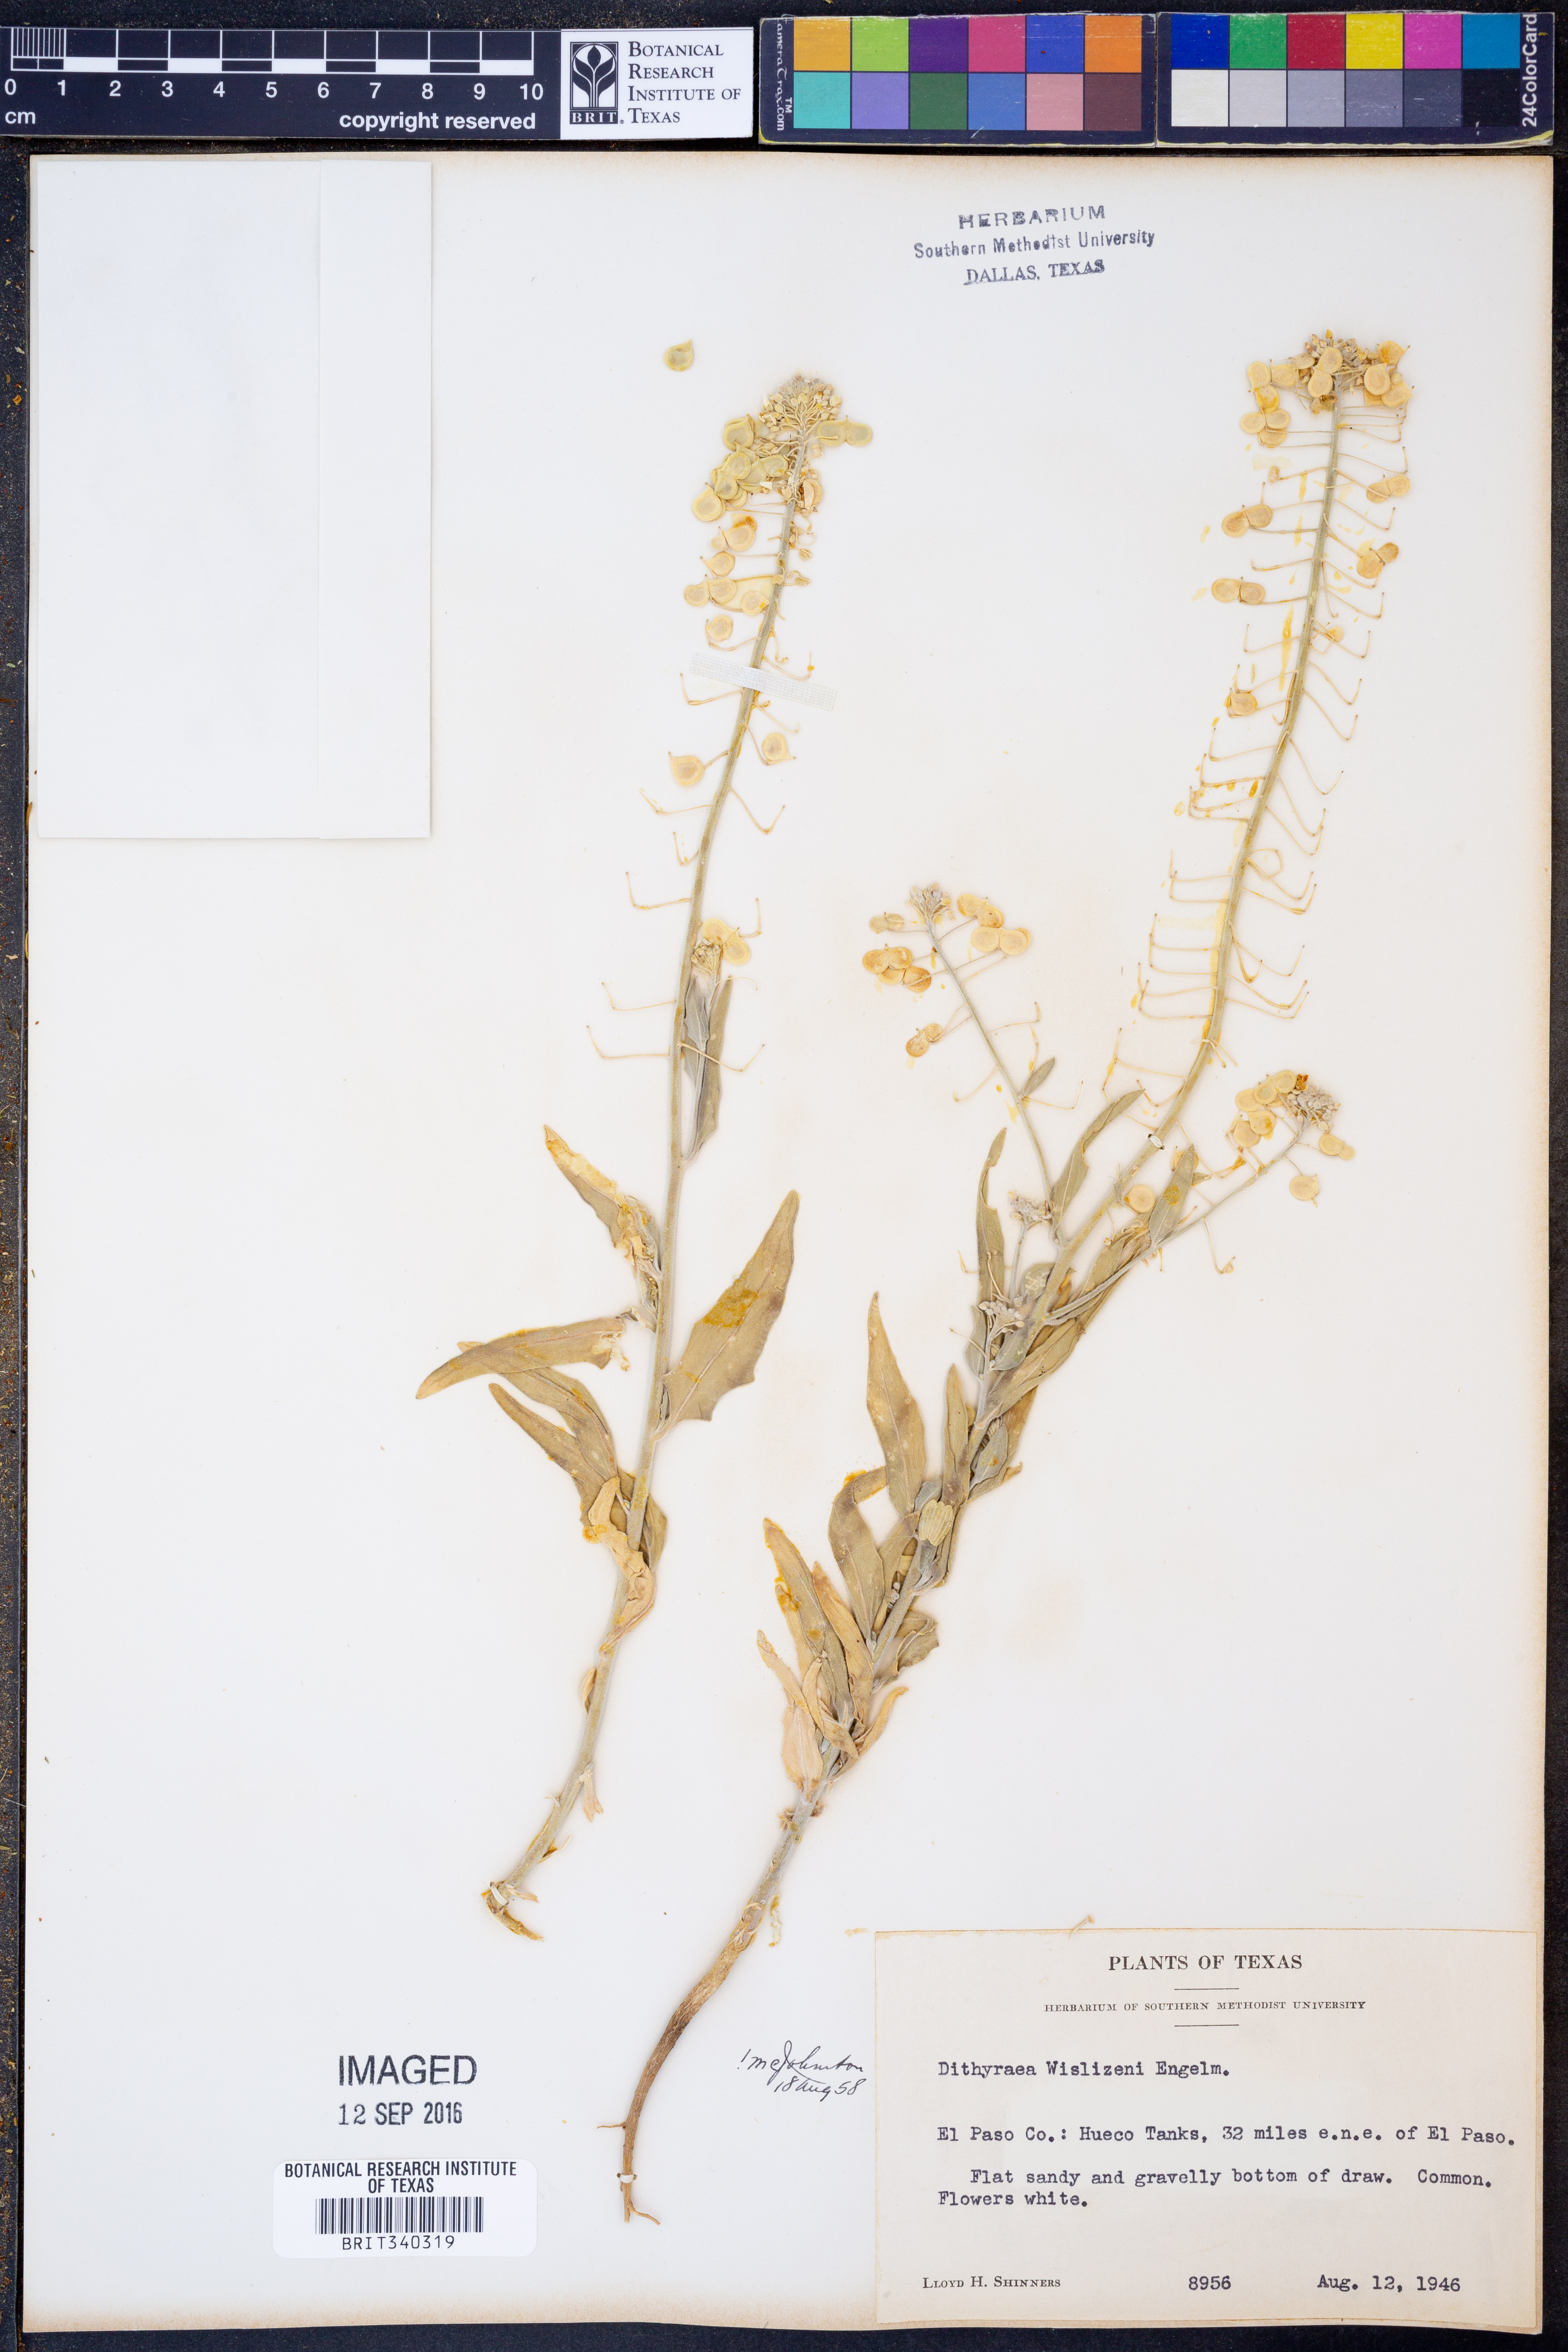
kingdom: Plantae
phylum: Tracheophyta
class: Magnoliopsida
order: Brassicales
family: Brassicaceae
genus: Dimorphocarpa
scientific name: Dimorphocarpa wislizenii
